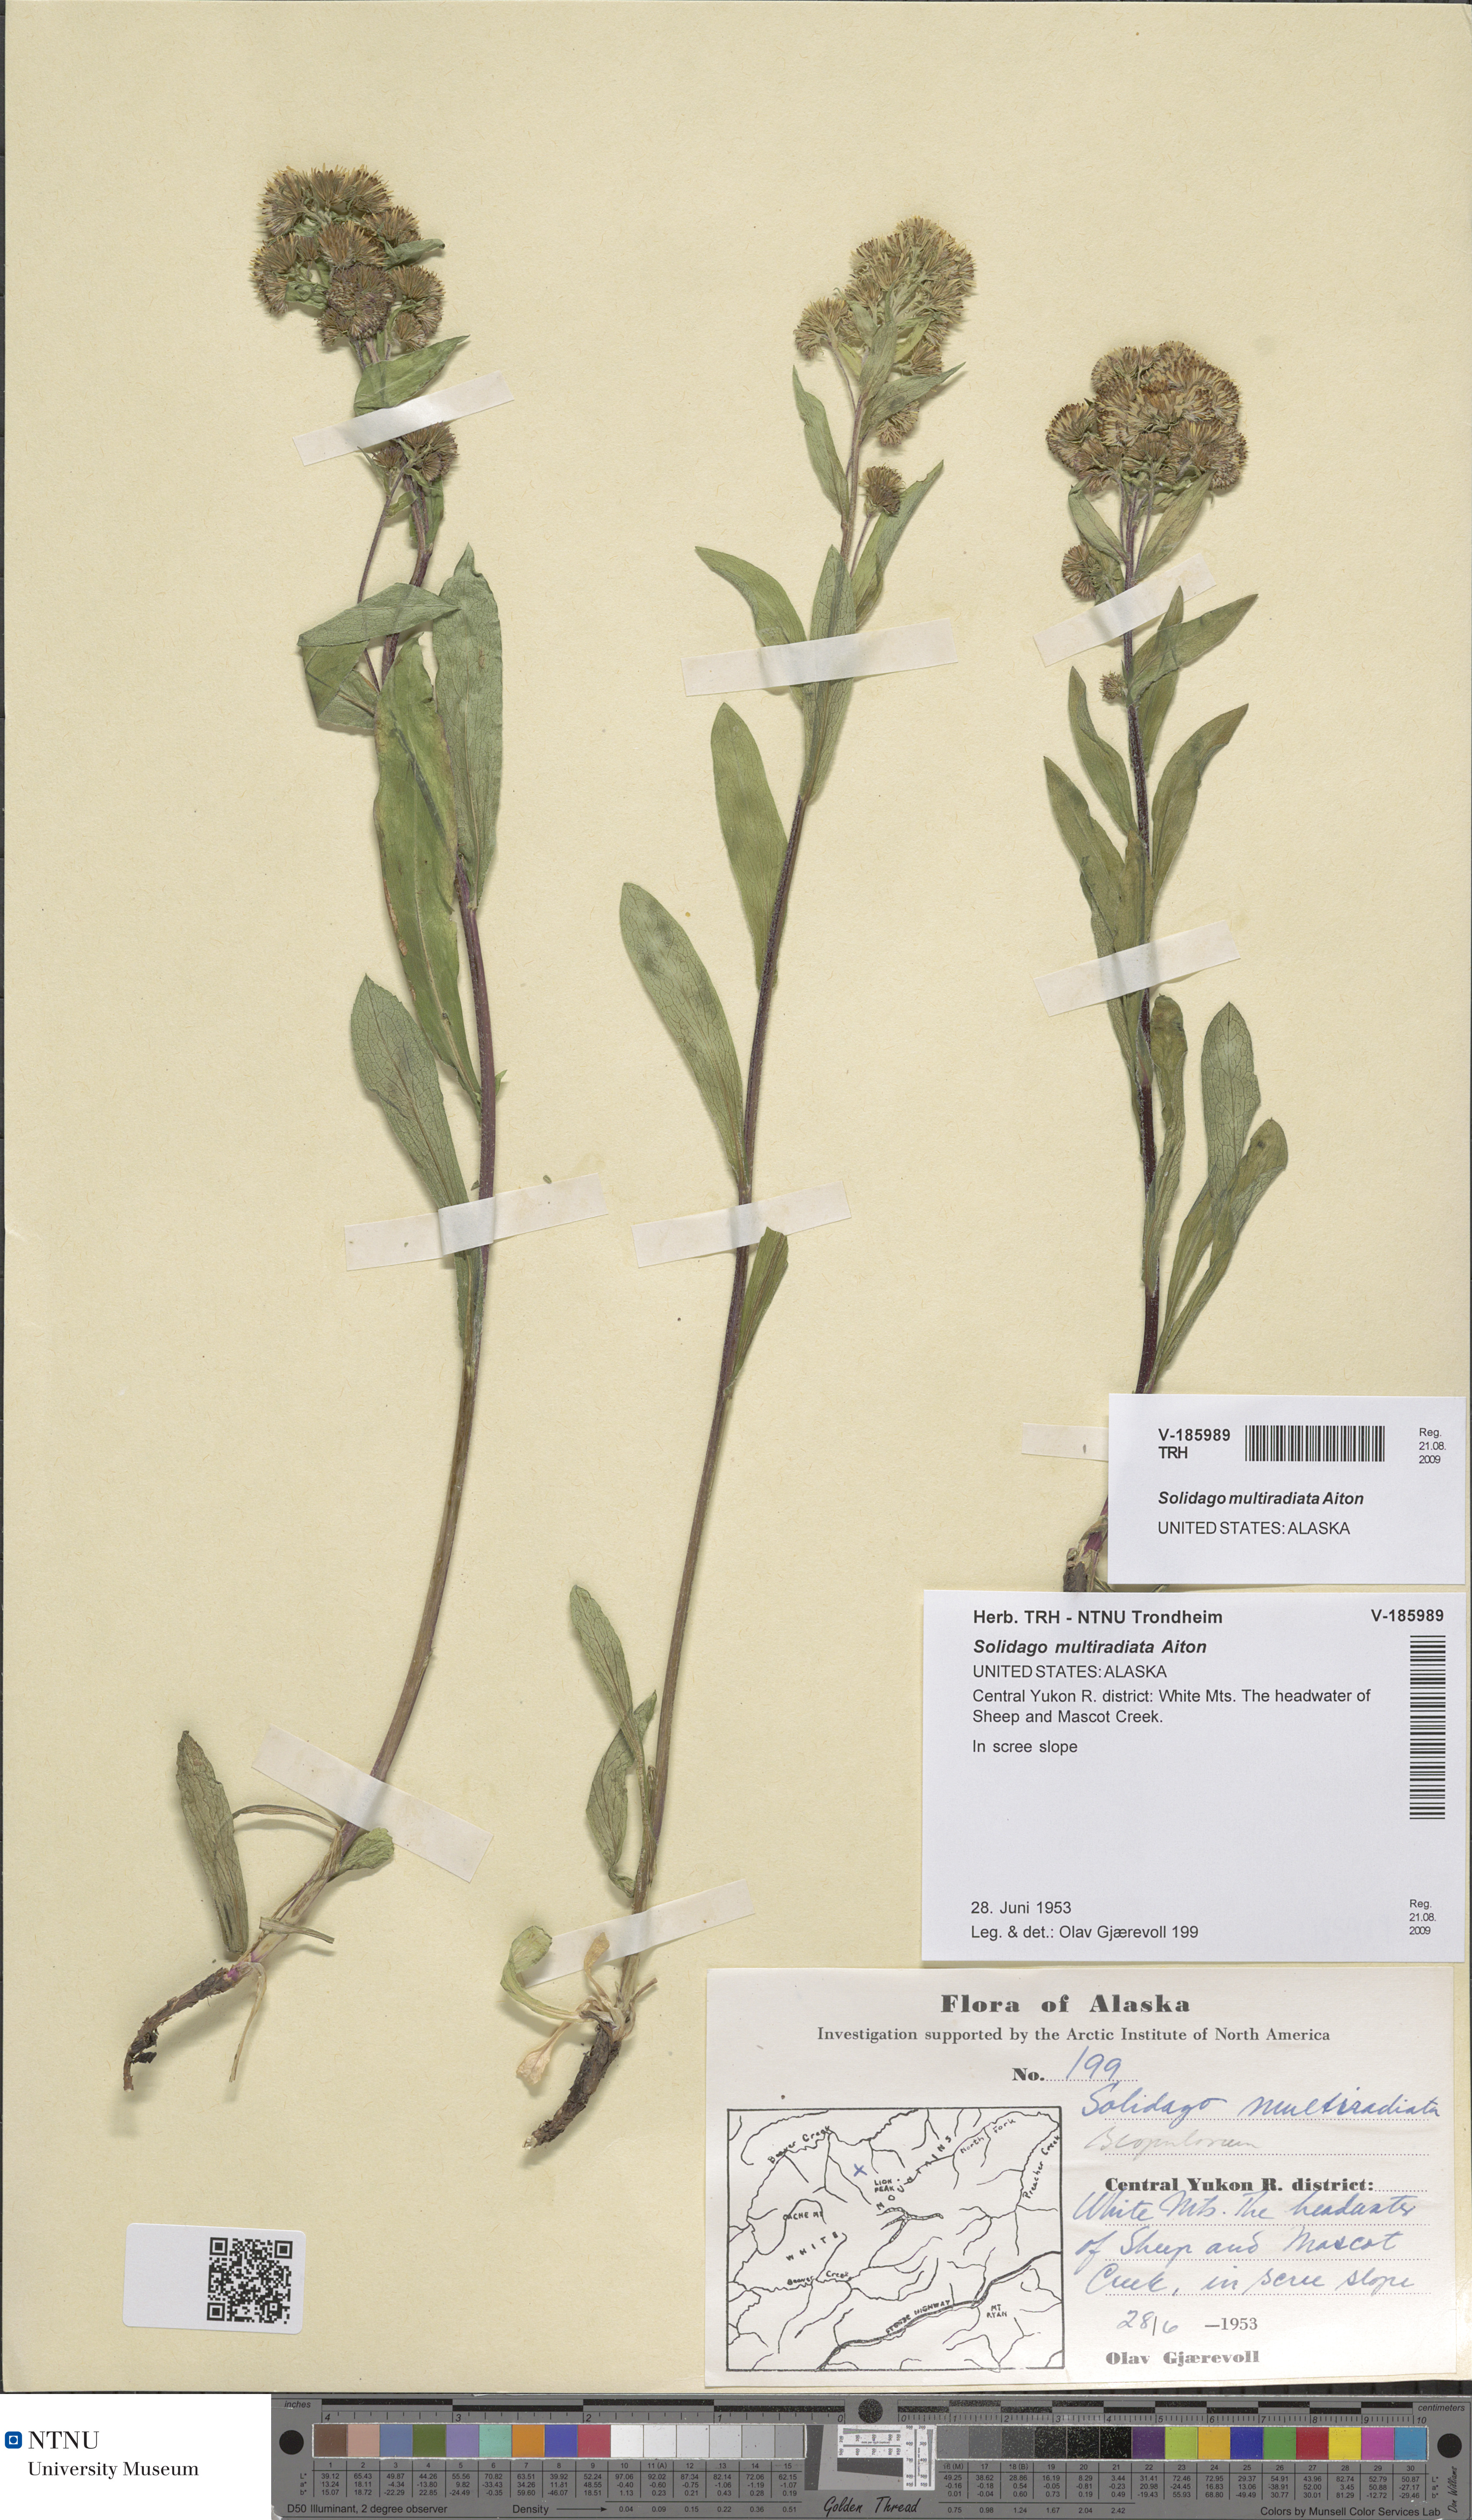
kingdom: Plantae
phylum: Tracheophyta
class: Magnoliopsida
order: Asterales
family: Asteraceae
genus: Solidago
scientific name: Solidago multiradiata
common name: Northern goldenrod
